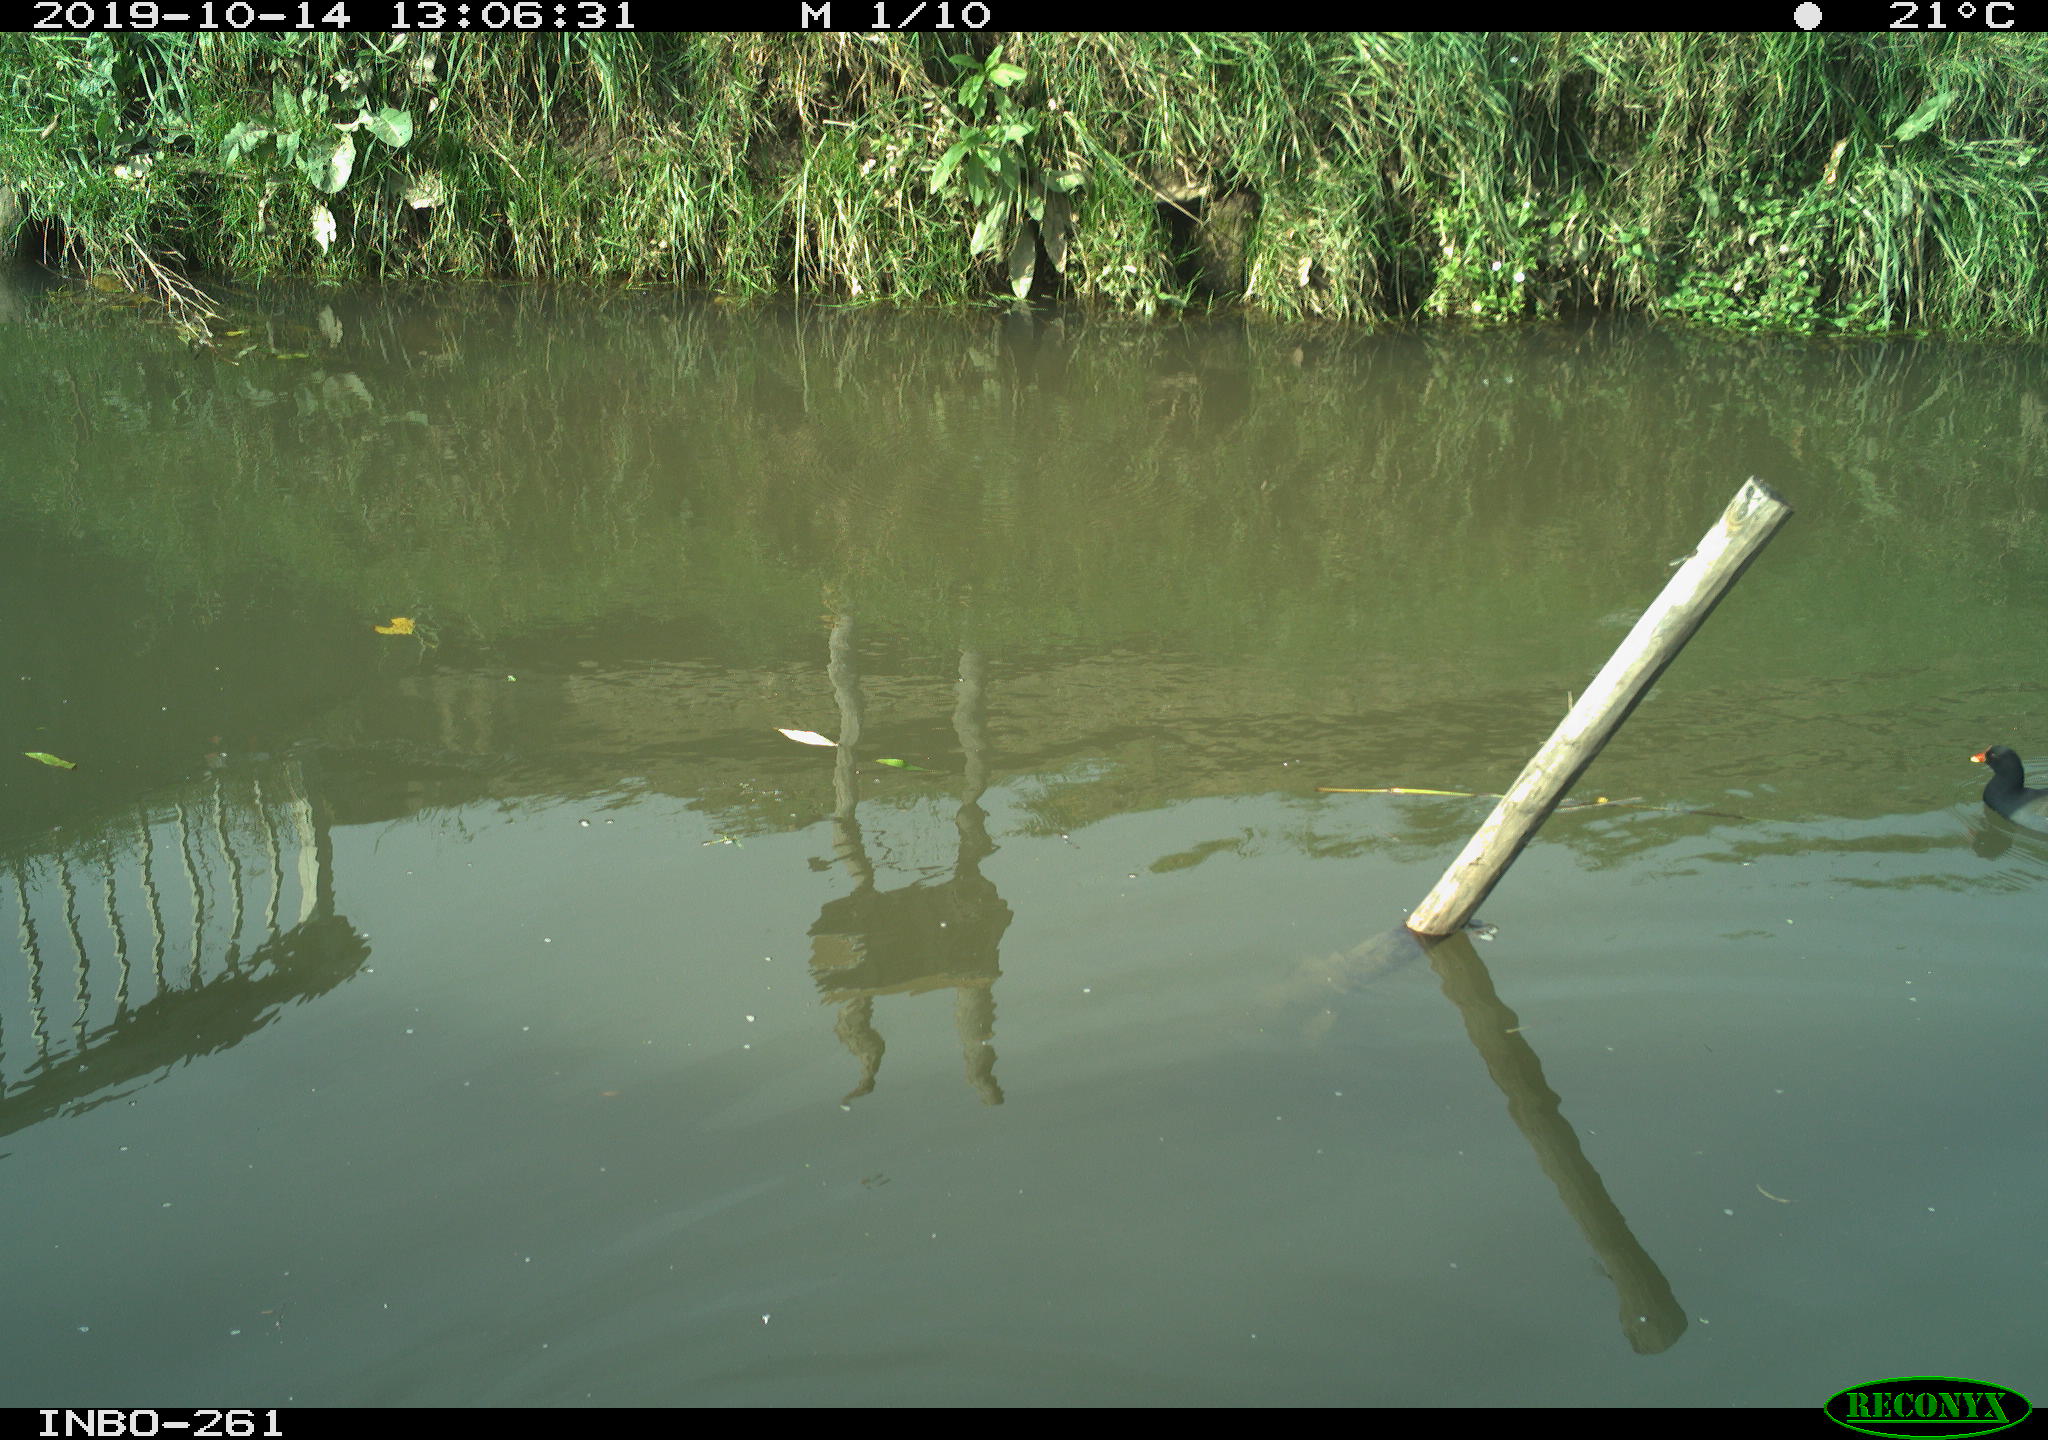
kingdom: Animalia
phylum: Chordata
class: Aves
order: Gruiformes
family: Rallidae
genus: Gallinula
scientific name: Gallinula chloropus
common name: Common moorhen
